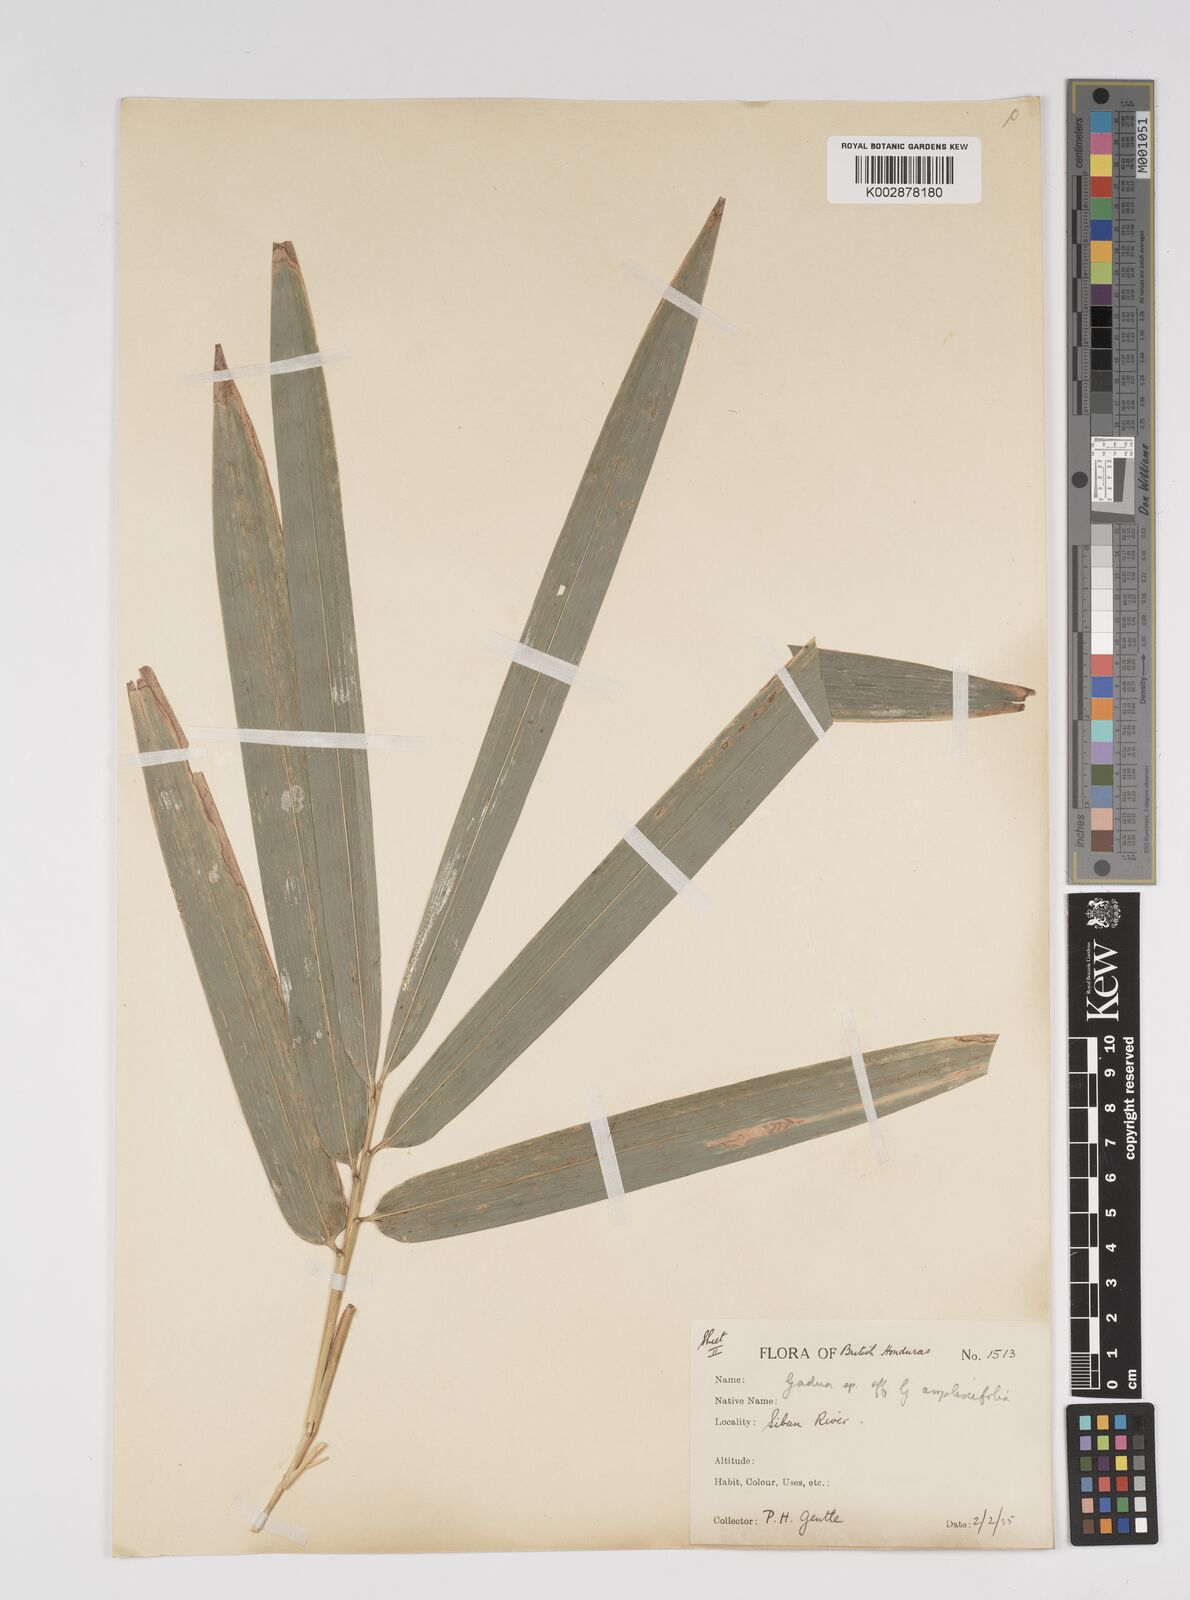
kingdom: Plantae
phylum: Tracheophyta
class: Liliopsida
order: Poales
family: Poaceae
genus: Guadua
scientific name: Guadua amplexifolia
